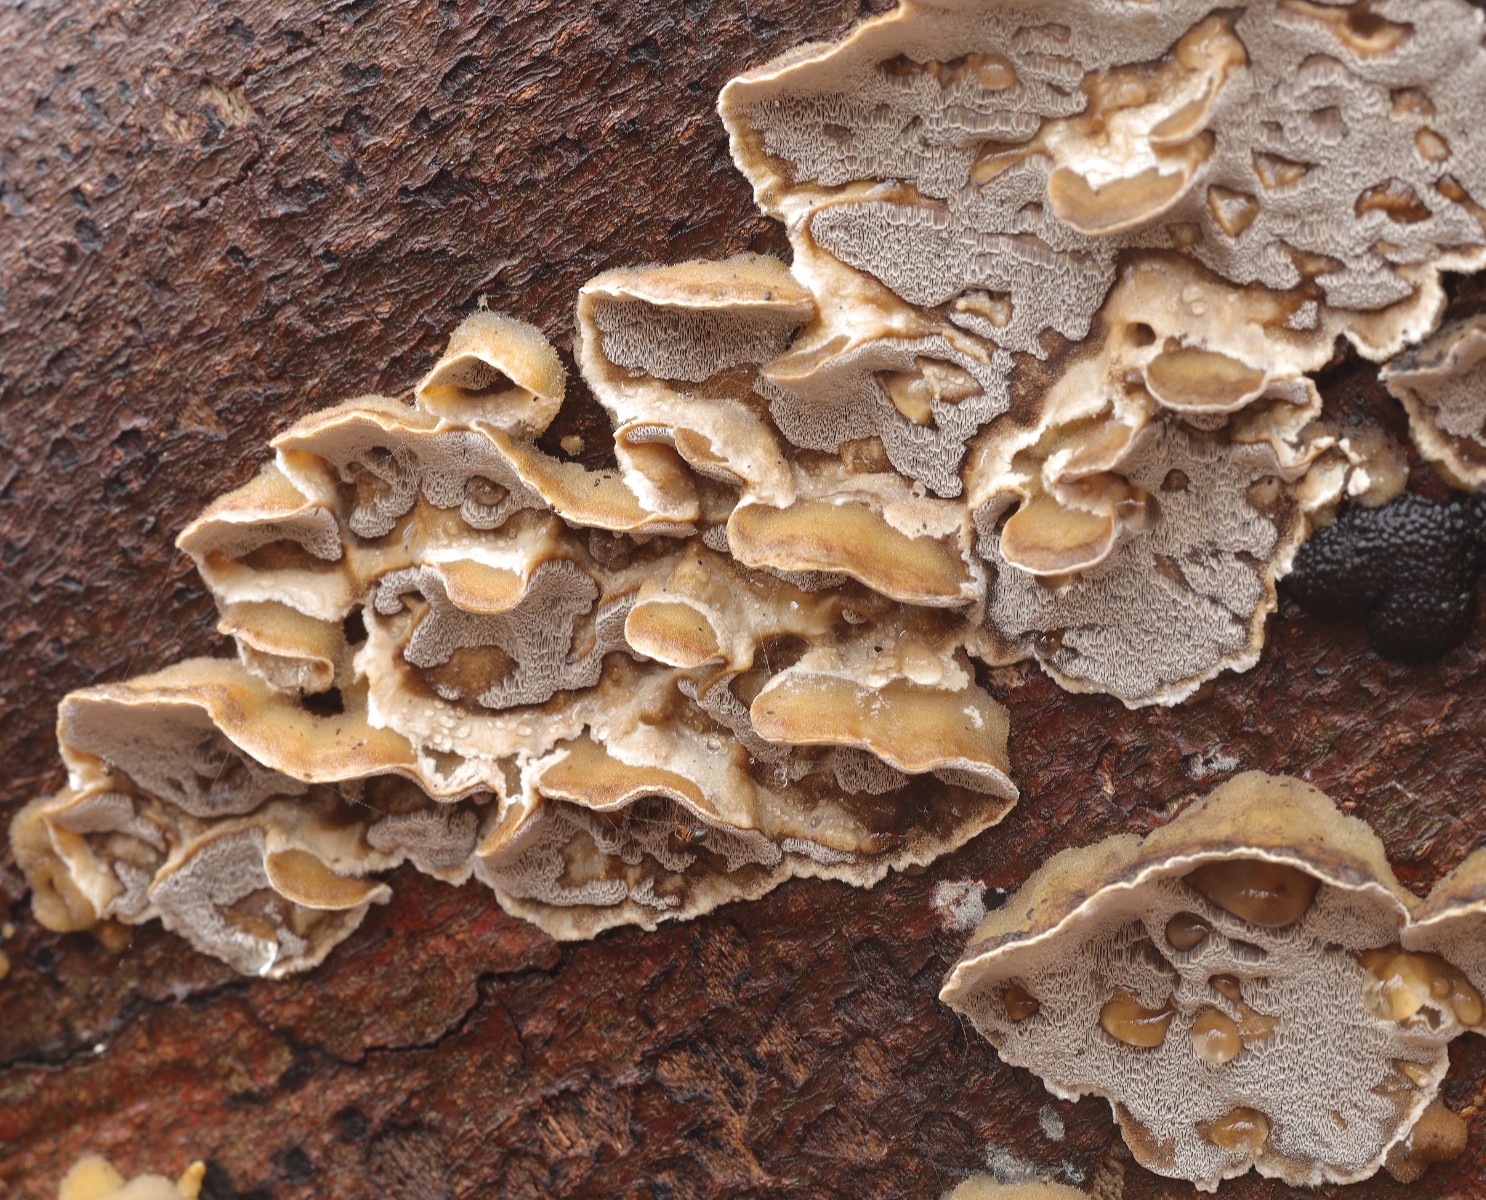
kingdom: Fungi
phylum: Basidiomycota
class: Agaricomycetes
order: Polyporales
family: Phanerochaetaceae
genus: Bjerkandera
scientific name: Bjerkandera
